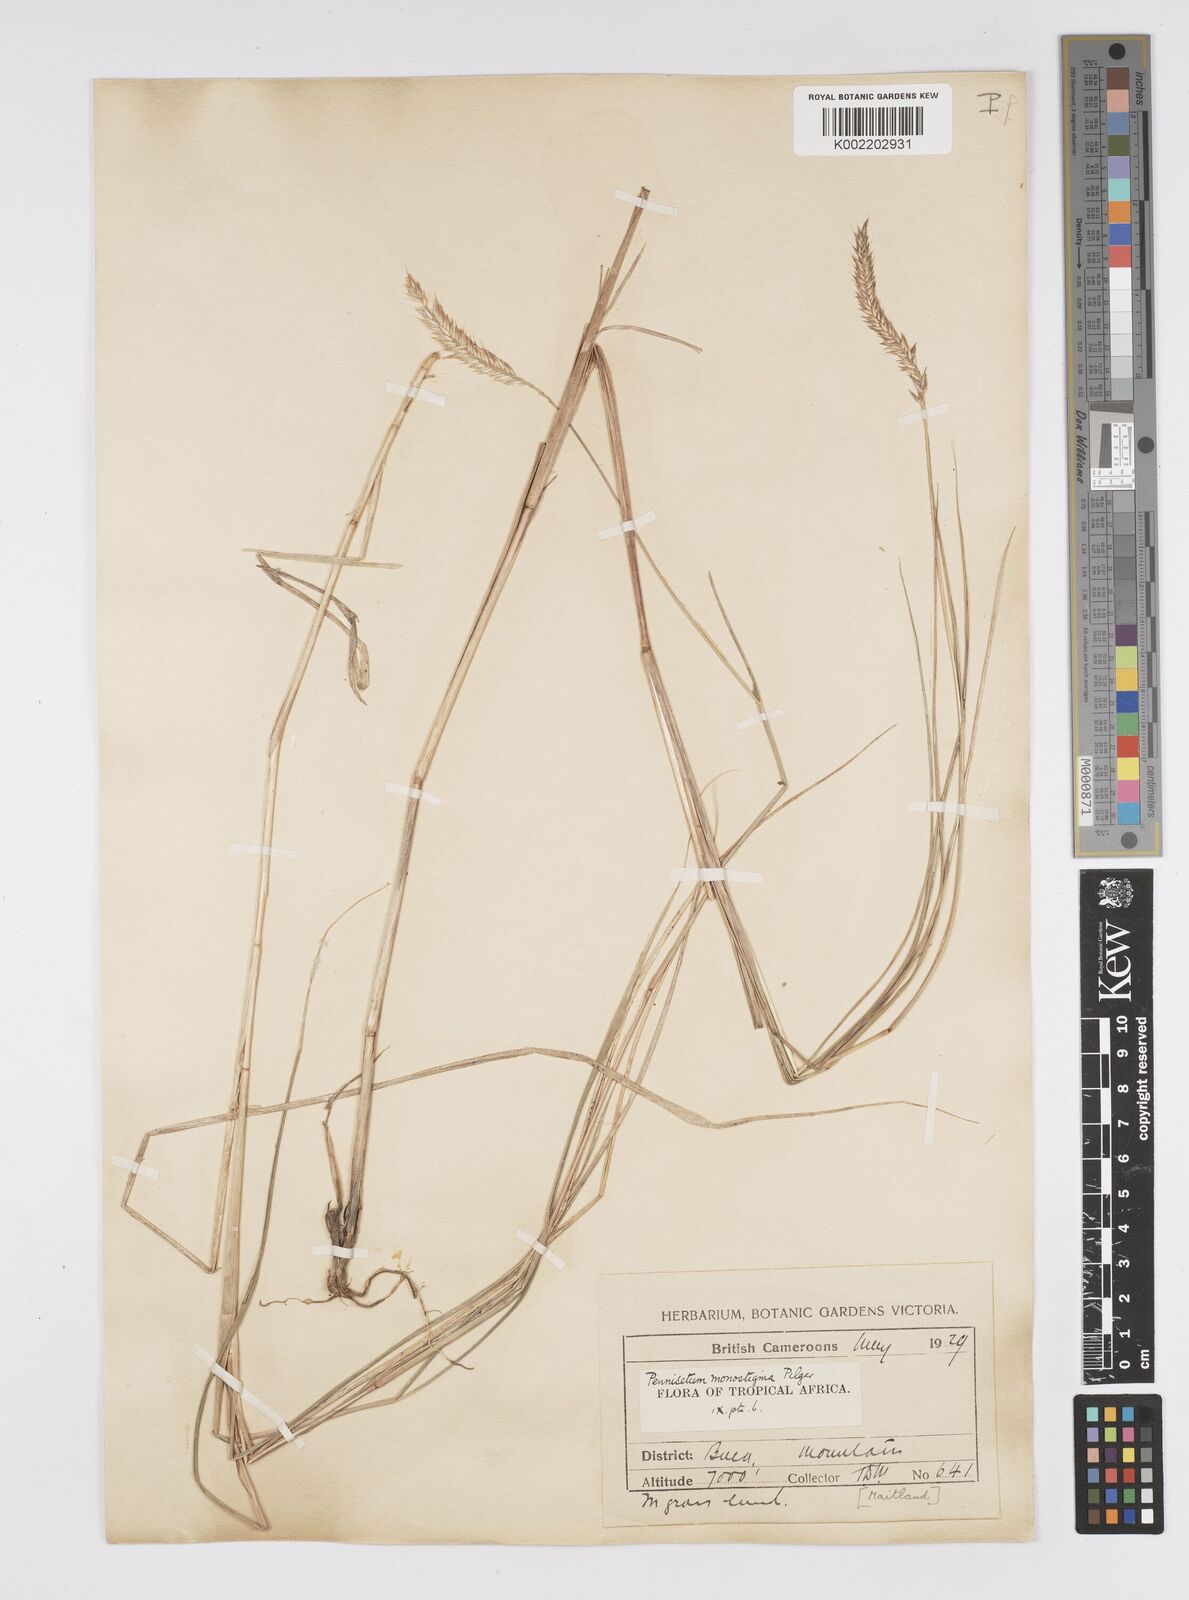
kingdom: Plantae
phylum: Tracheophyta
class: Liliopsida
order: Poales
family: Poaceae
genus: Cenchrus
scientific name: Cenchrus monostigma
